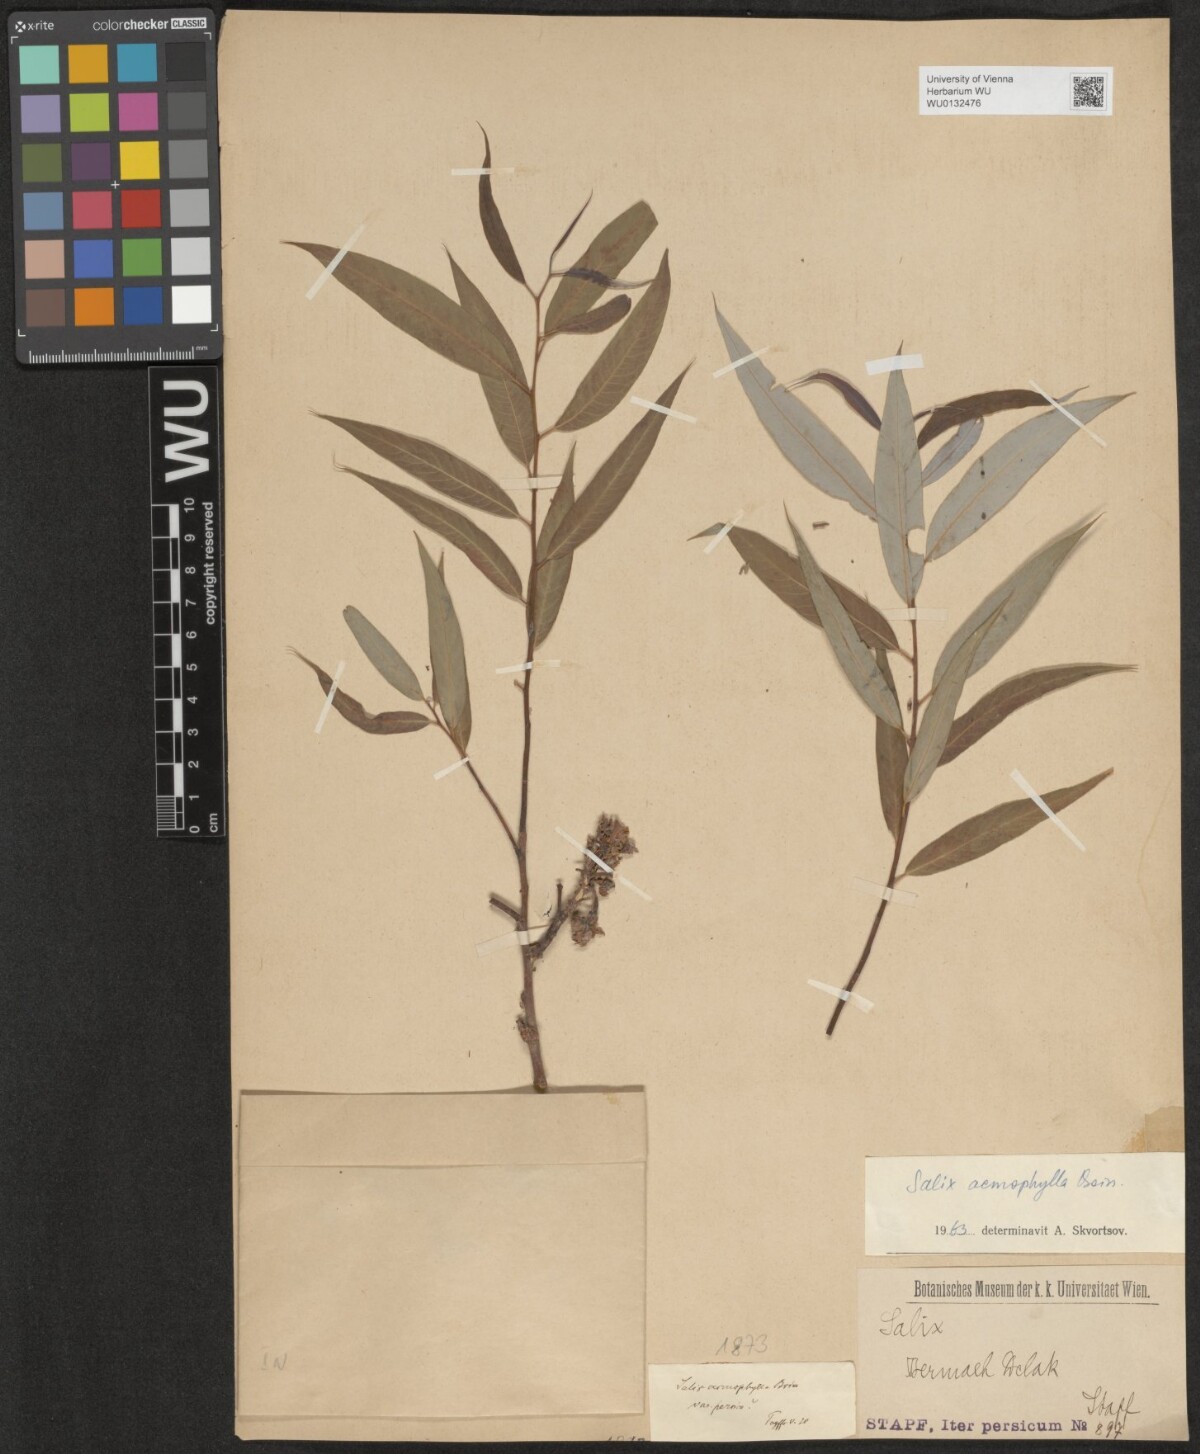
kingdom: Plantae
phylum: Tracheophyta
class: Magnoliopsida
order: Malpighiales
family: Salicaceae
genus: Salix
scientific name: Salix acmophylla
